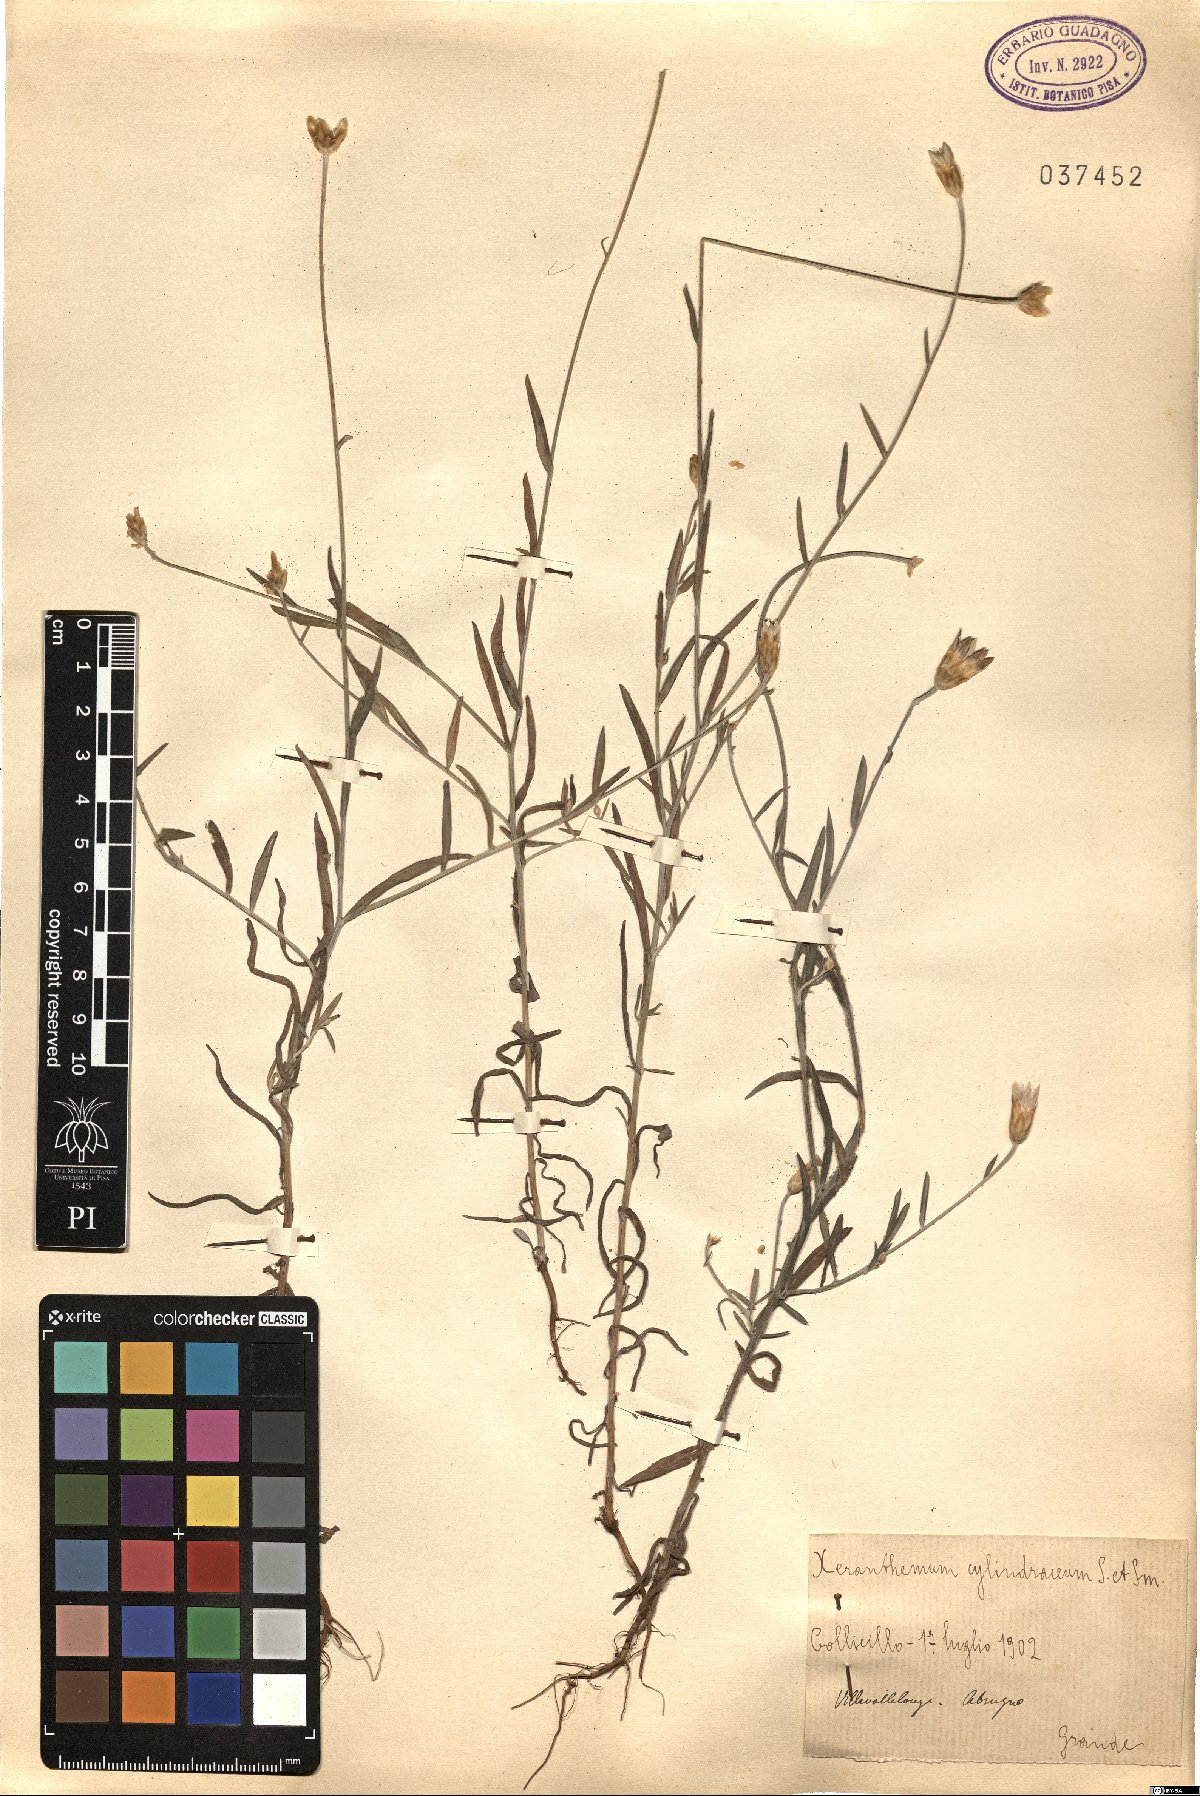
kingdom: Plantae
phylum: Tracheophyta
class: Magnoliopsida
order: Asterales
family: Asteraceae
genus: Xeranthemum
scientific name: Xeranthemum cylindraceum
